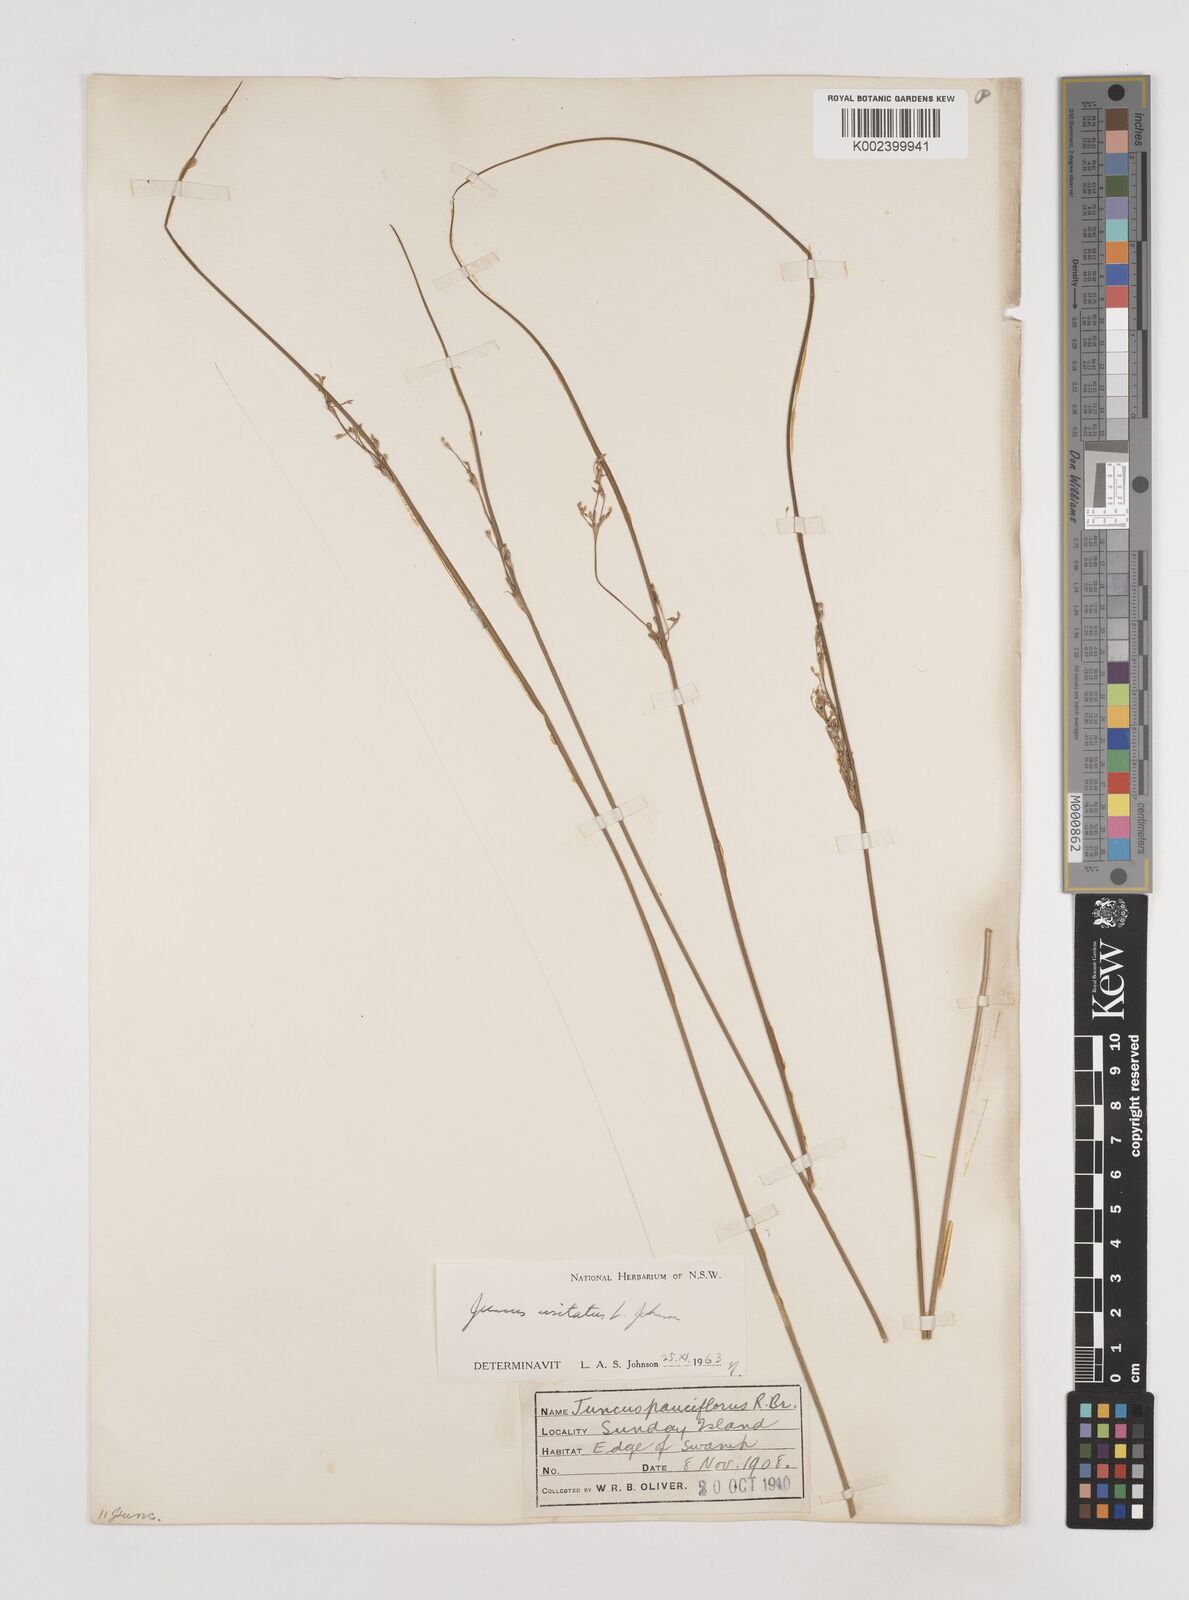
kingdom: Plantae
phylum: Tracheophyta
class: Liliopsida
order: Poales
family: Juncaceae
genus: Juncus
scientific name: Juncus usitatus
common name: Rush
